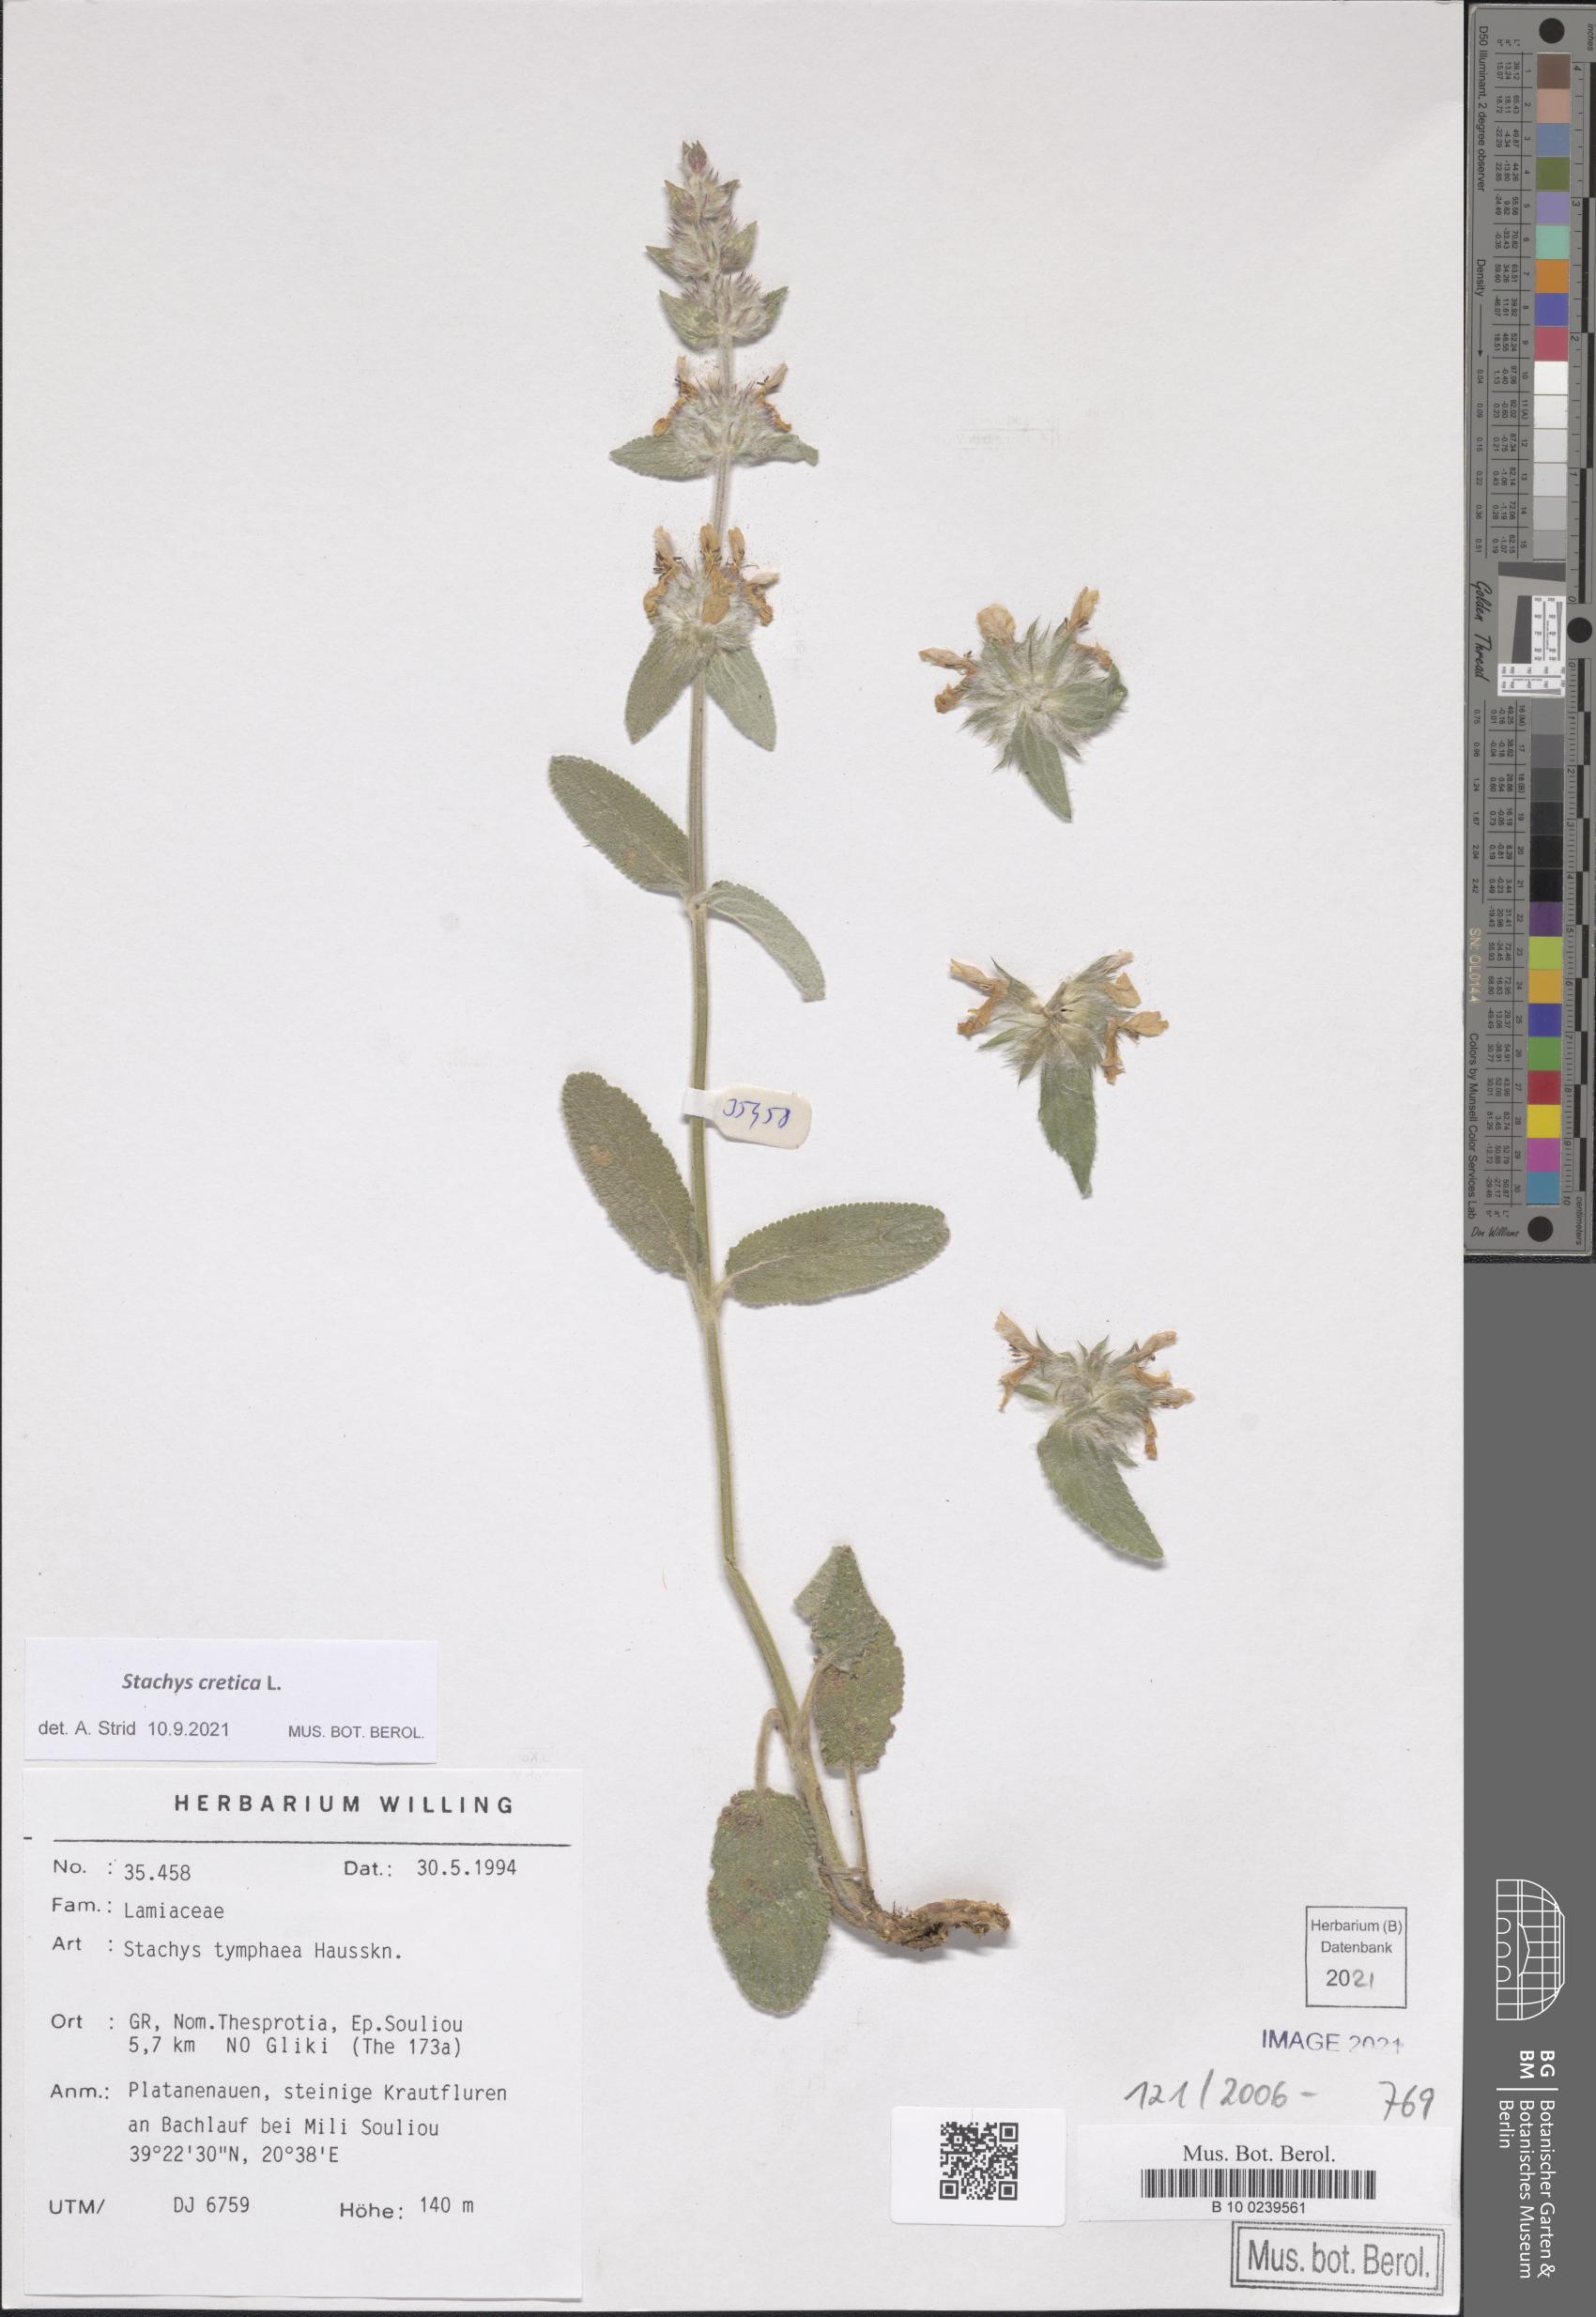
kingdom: Plantae
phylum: Tracheophyta
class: Magnoliopsida
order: Lamiales
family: Lamiaceae
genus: Stachys
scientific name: Stachys cretica
